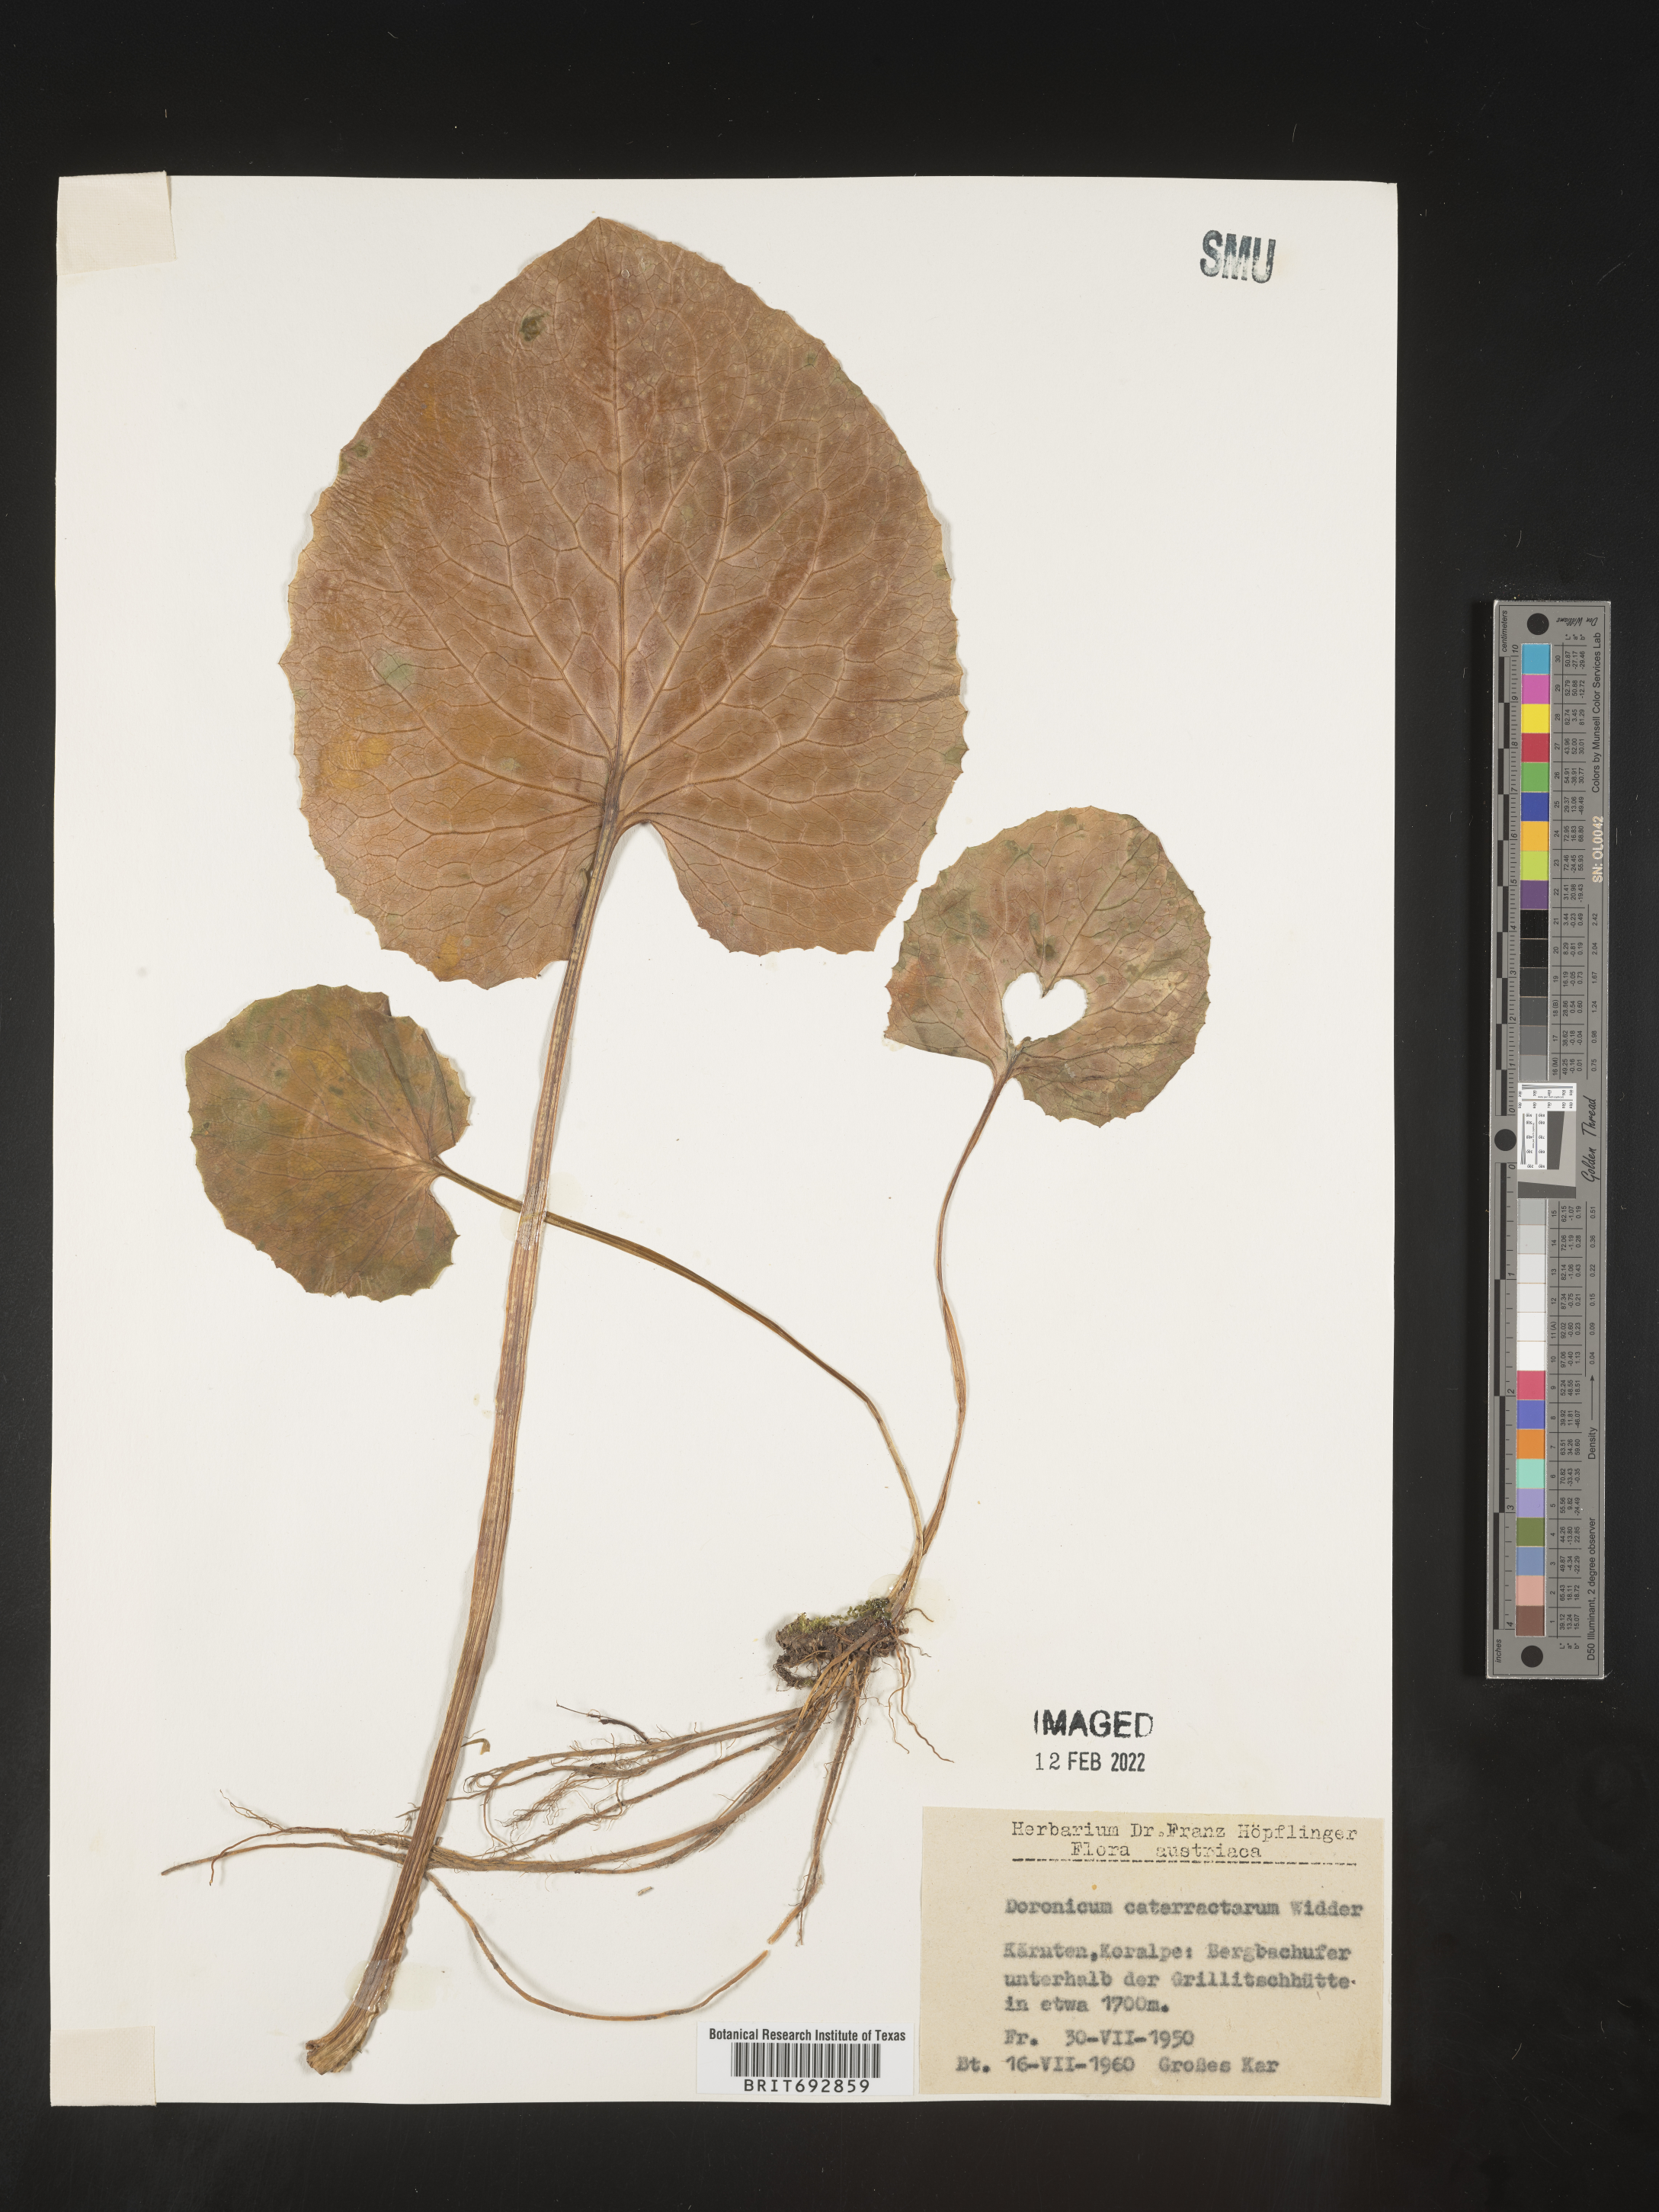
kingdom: Plantae
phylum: Tracheophyta
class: Magnoliopsida
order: Asterales
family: Asteraceae
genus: Doronicum
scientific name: Doronicum
